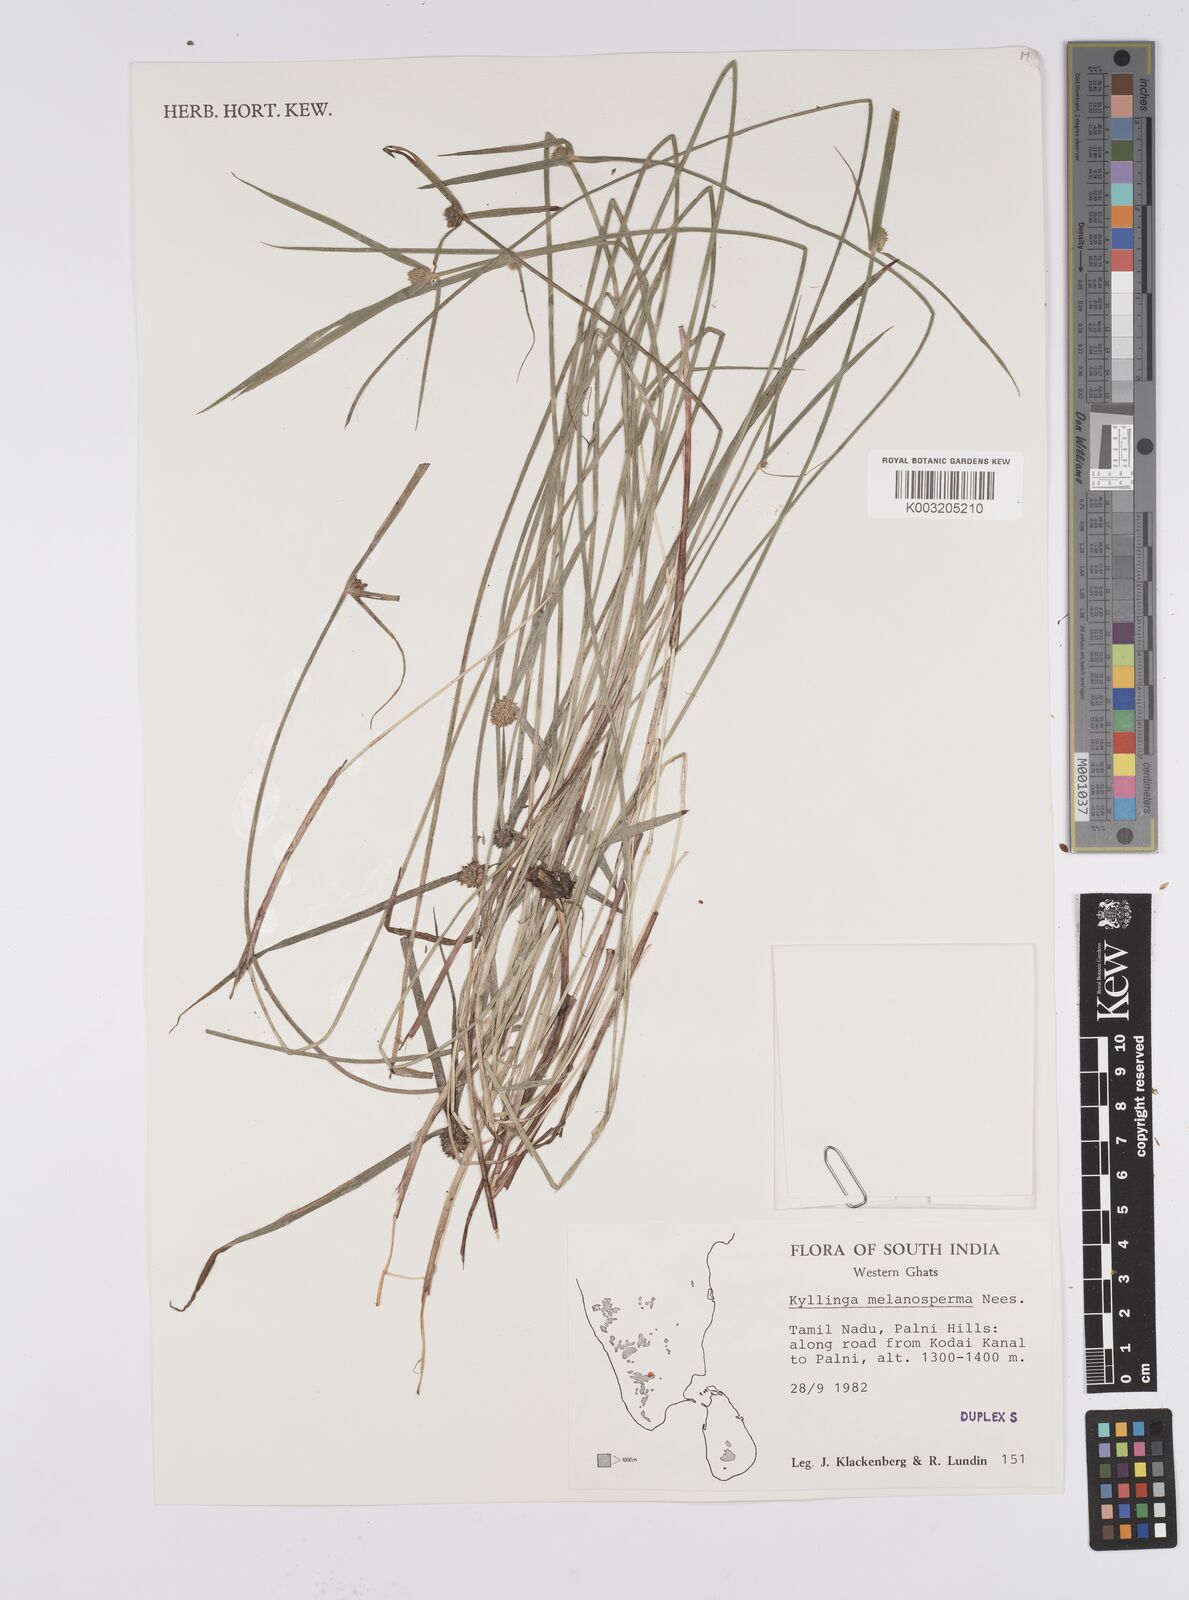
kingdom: Plantae
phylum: Tracheophyta
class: Liliopsida
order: Poales
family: Cyperaceae
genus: Cyperus
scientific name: Cyperus melanospermus
